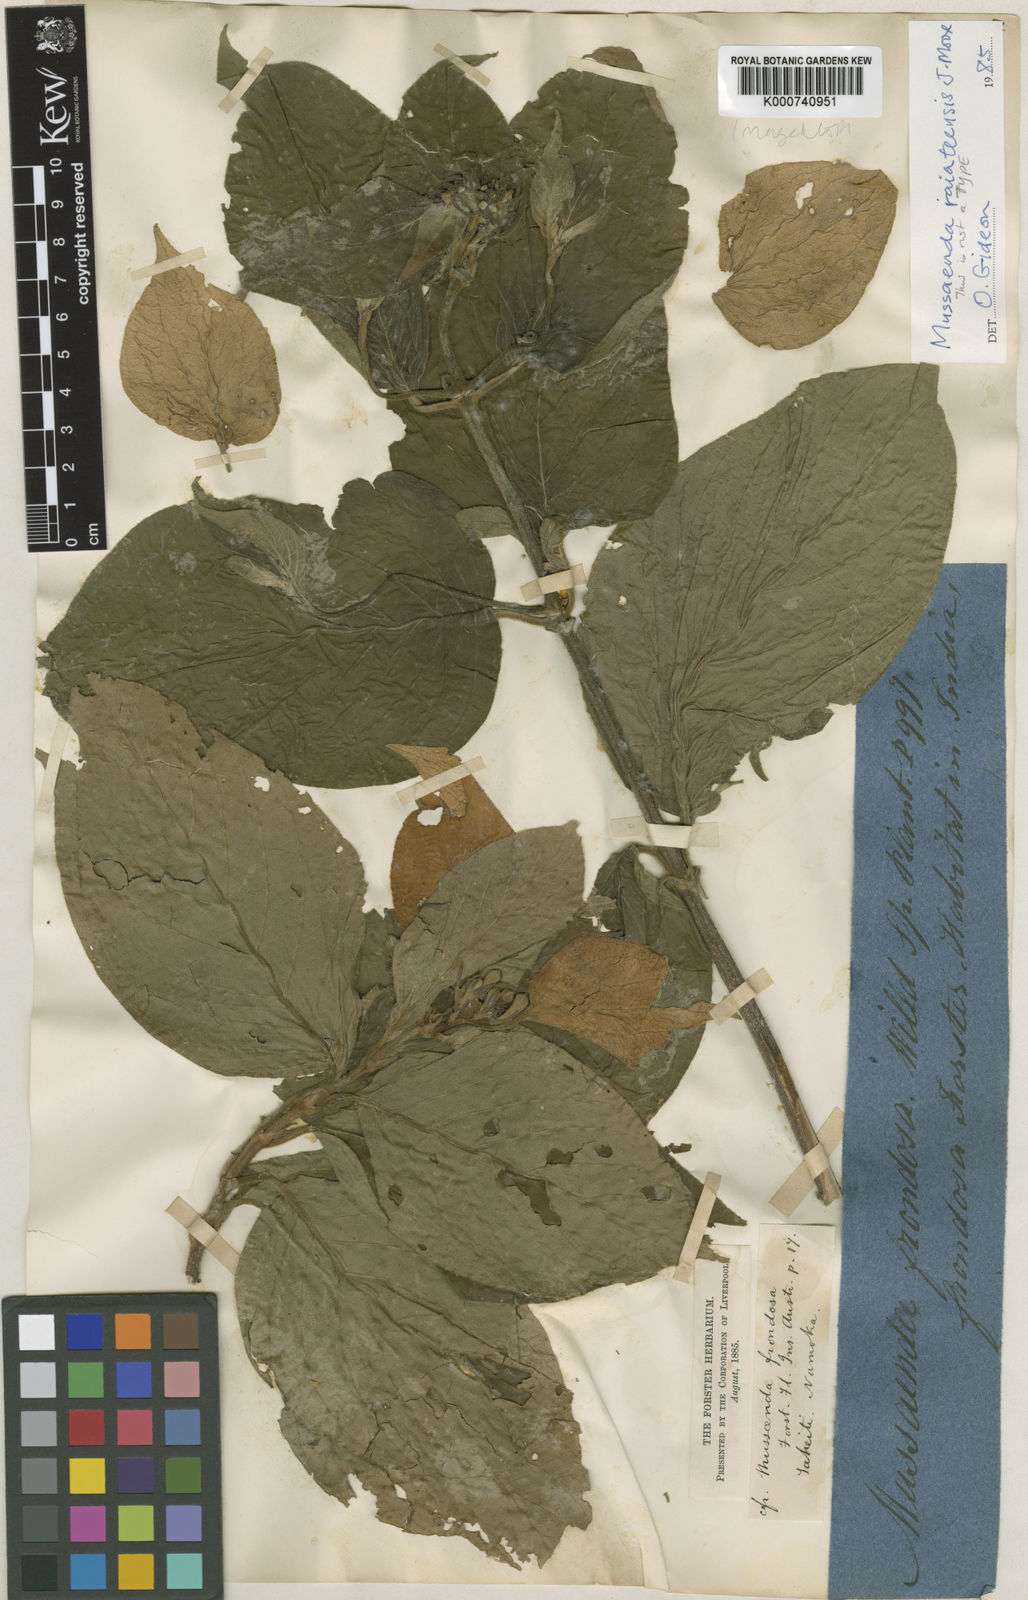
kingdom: Plantae
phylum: Tracheophyta
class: Magnoliopsida
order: Gentianales
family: Rubiaceae
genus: Mussaenda
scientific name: Mussaenda frondosa
